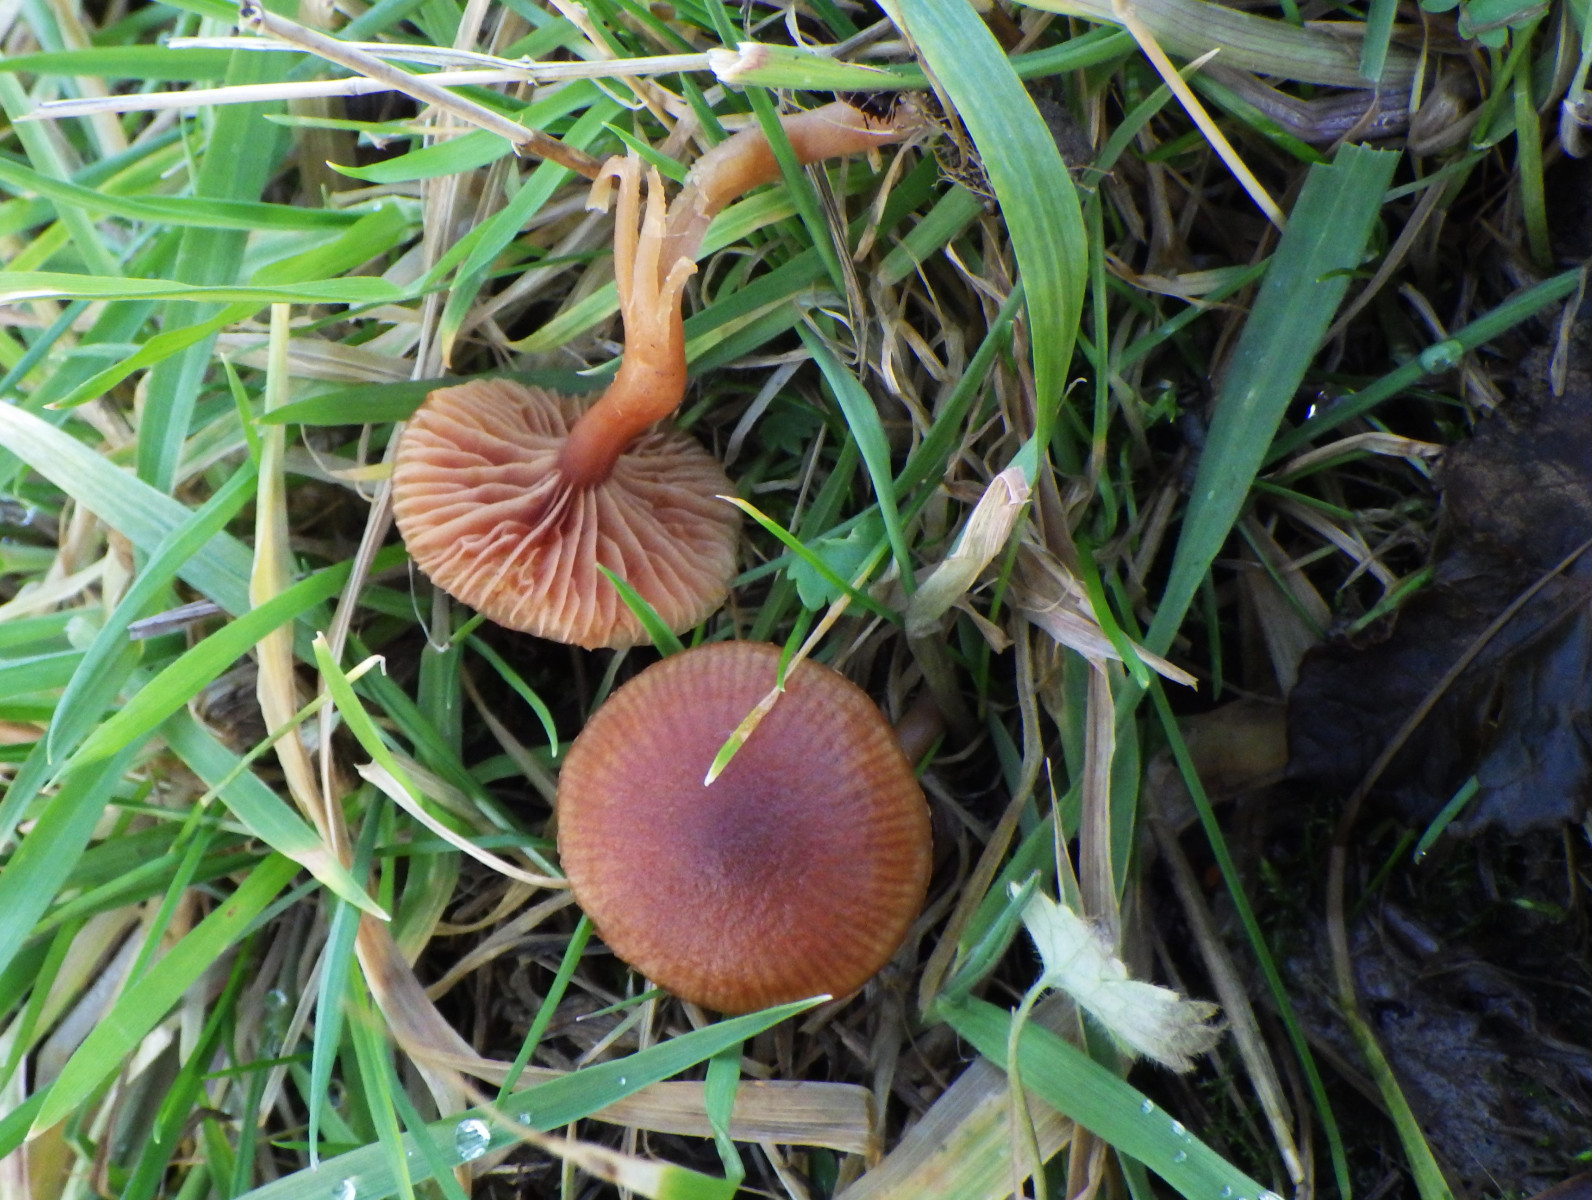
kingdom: Fungi
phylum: Basidiomycota
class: Agaricomycetes
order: Agaricales
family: Tubariaceae
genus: Tubaria
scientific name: Tubaria furfuracea
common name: kliddet fnughat
